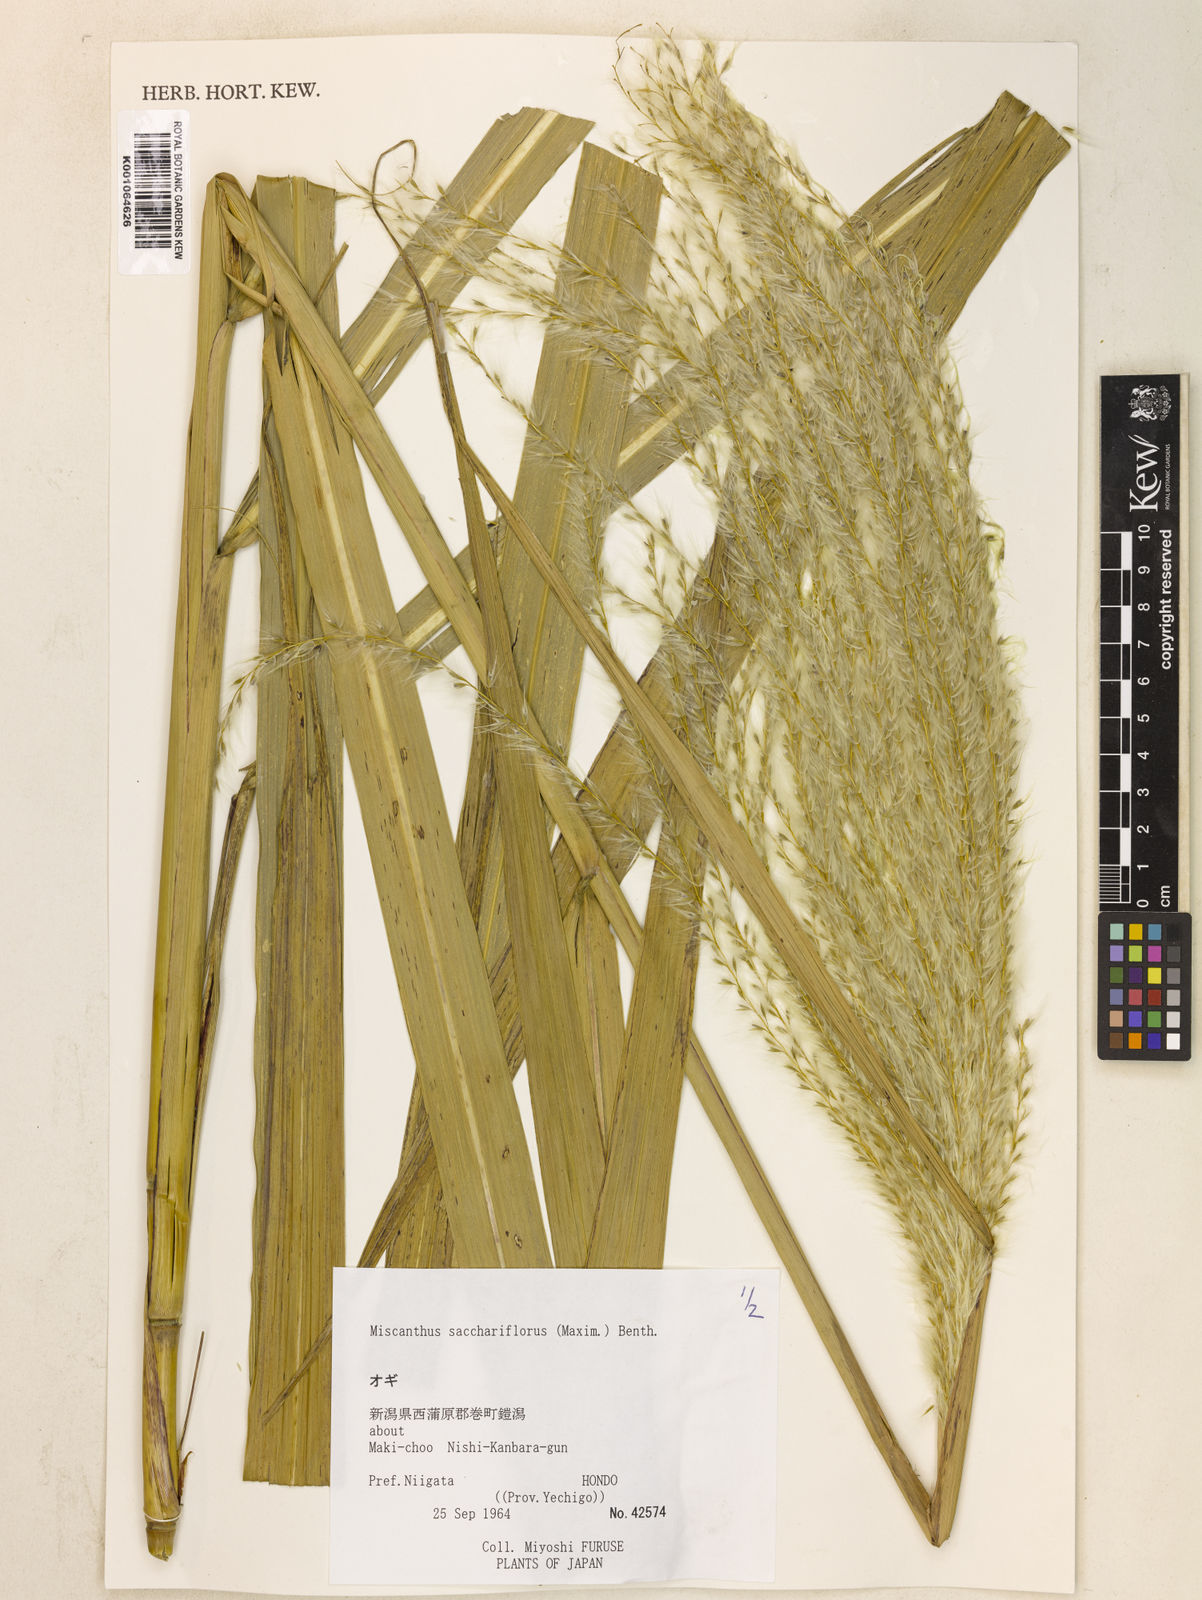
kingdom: Plantae
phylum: Tracheophyta
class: Liliopsida
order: Poales
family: Poaceae
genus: Miscanthus
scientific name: Miscanthus
